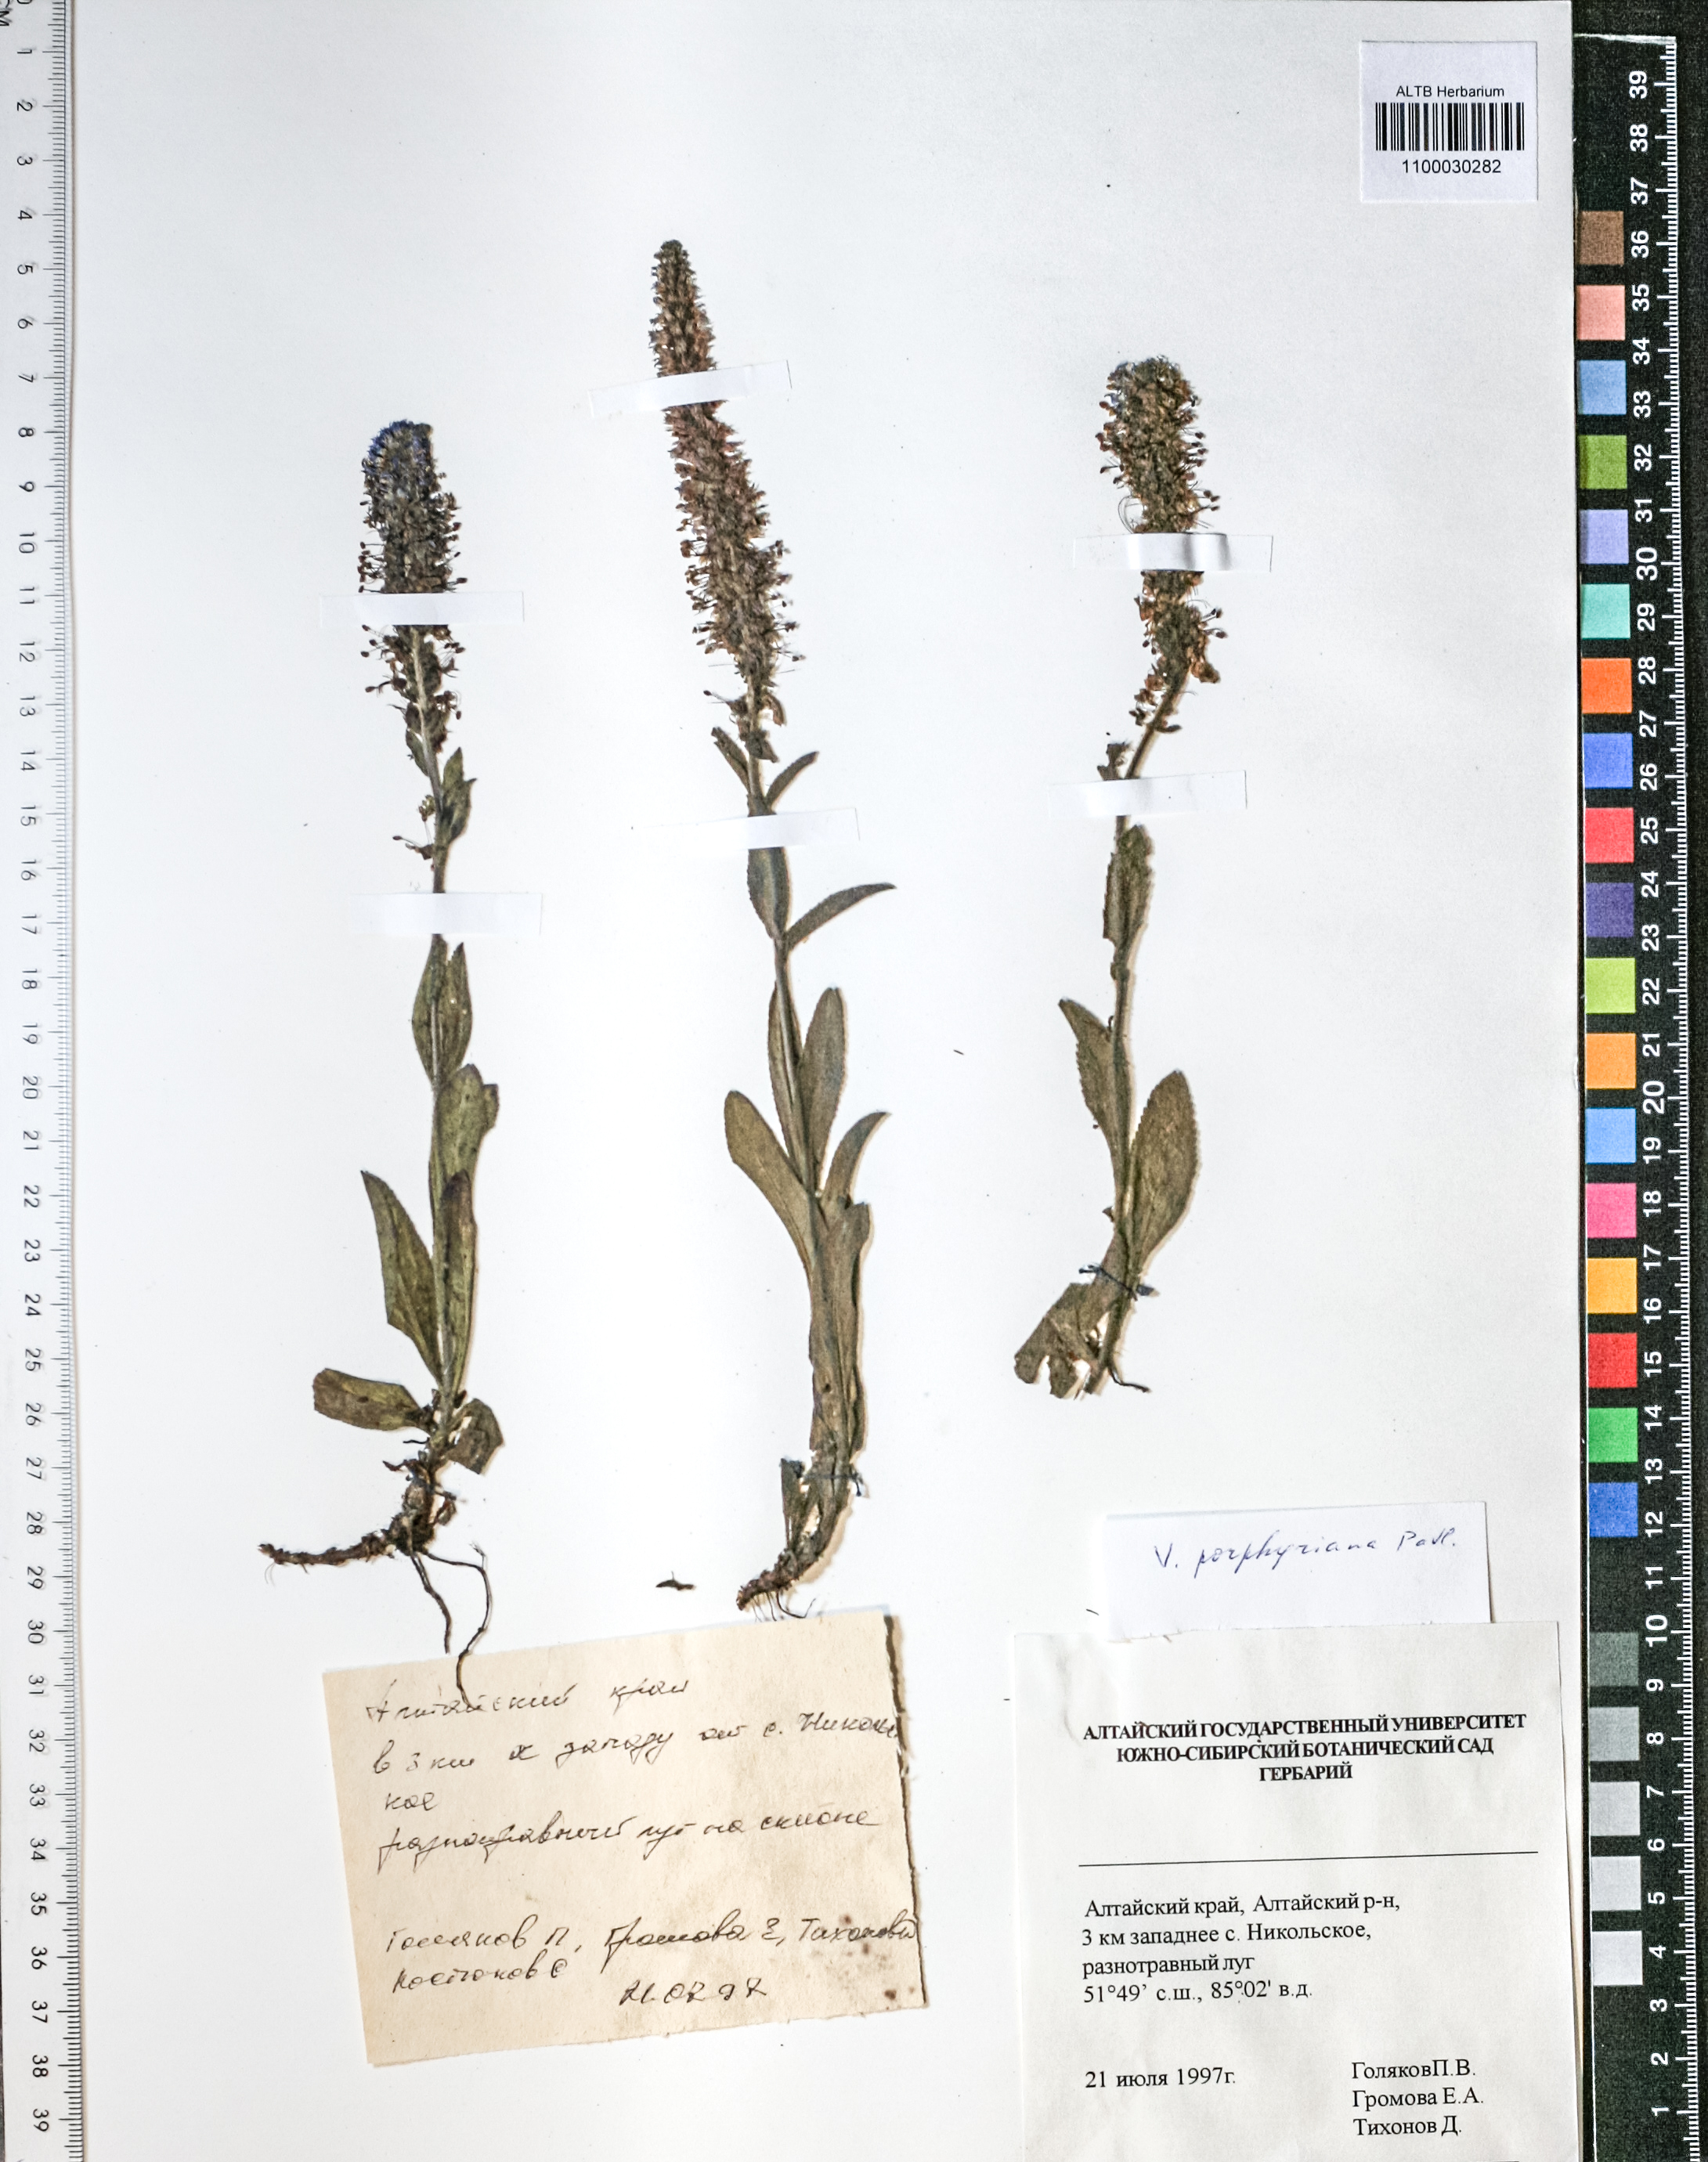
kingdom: Plantae
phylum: Tracheophyta
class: Magnoliopsida
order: Lamiales
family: Plantaginaceae
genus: Veronica
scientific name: Veronica porphyriana
